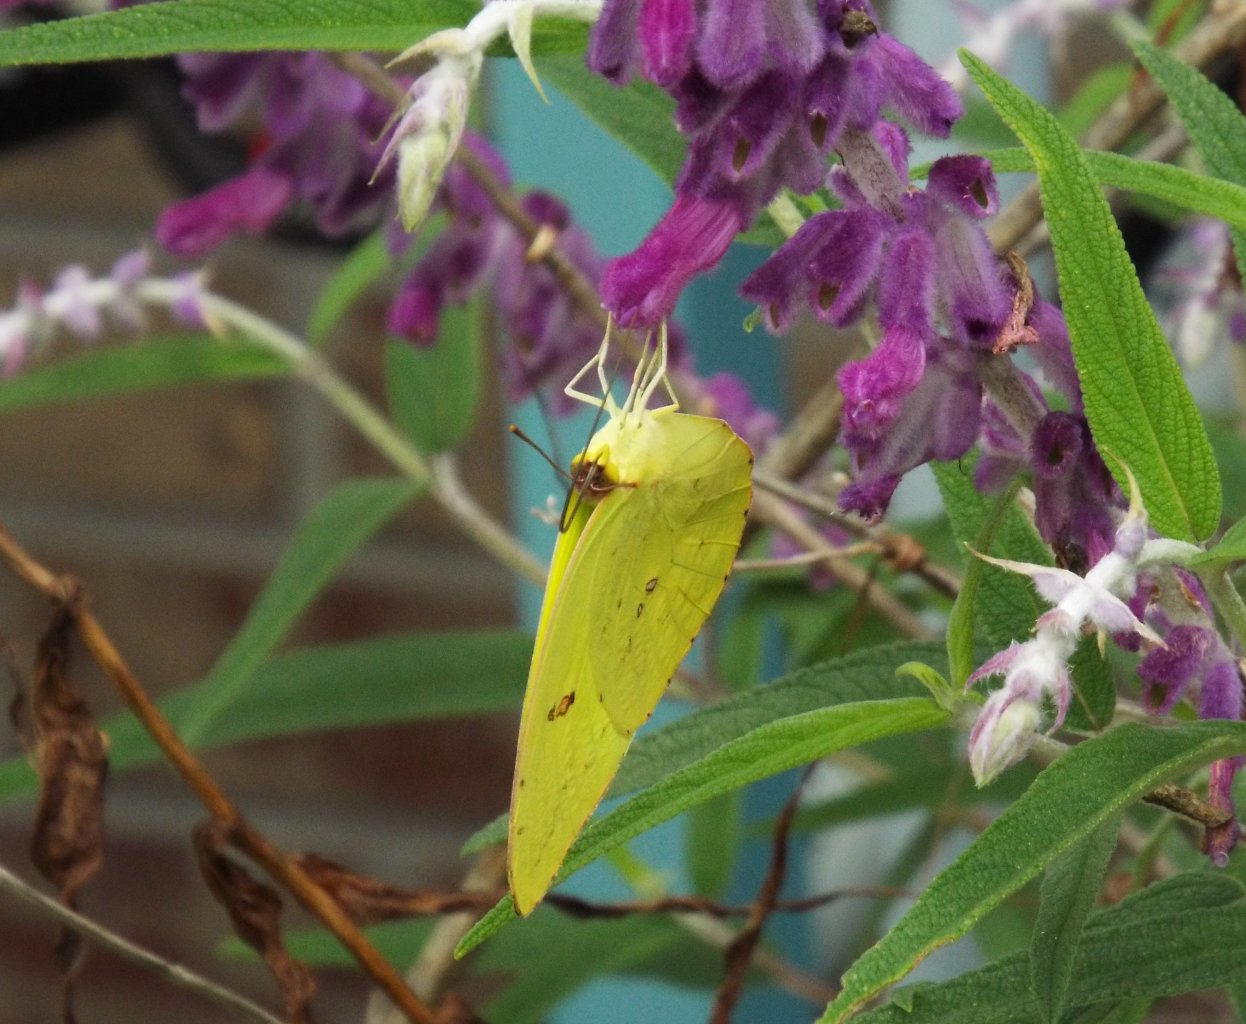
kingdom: Animalia
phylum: Arthropoda
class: Insecta
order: Lepidoptera
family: Pieridae
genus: Phoebis
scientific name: Phoebis sennae
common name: Cloudless Sulphur
